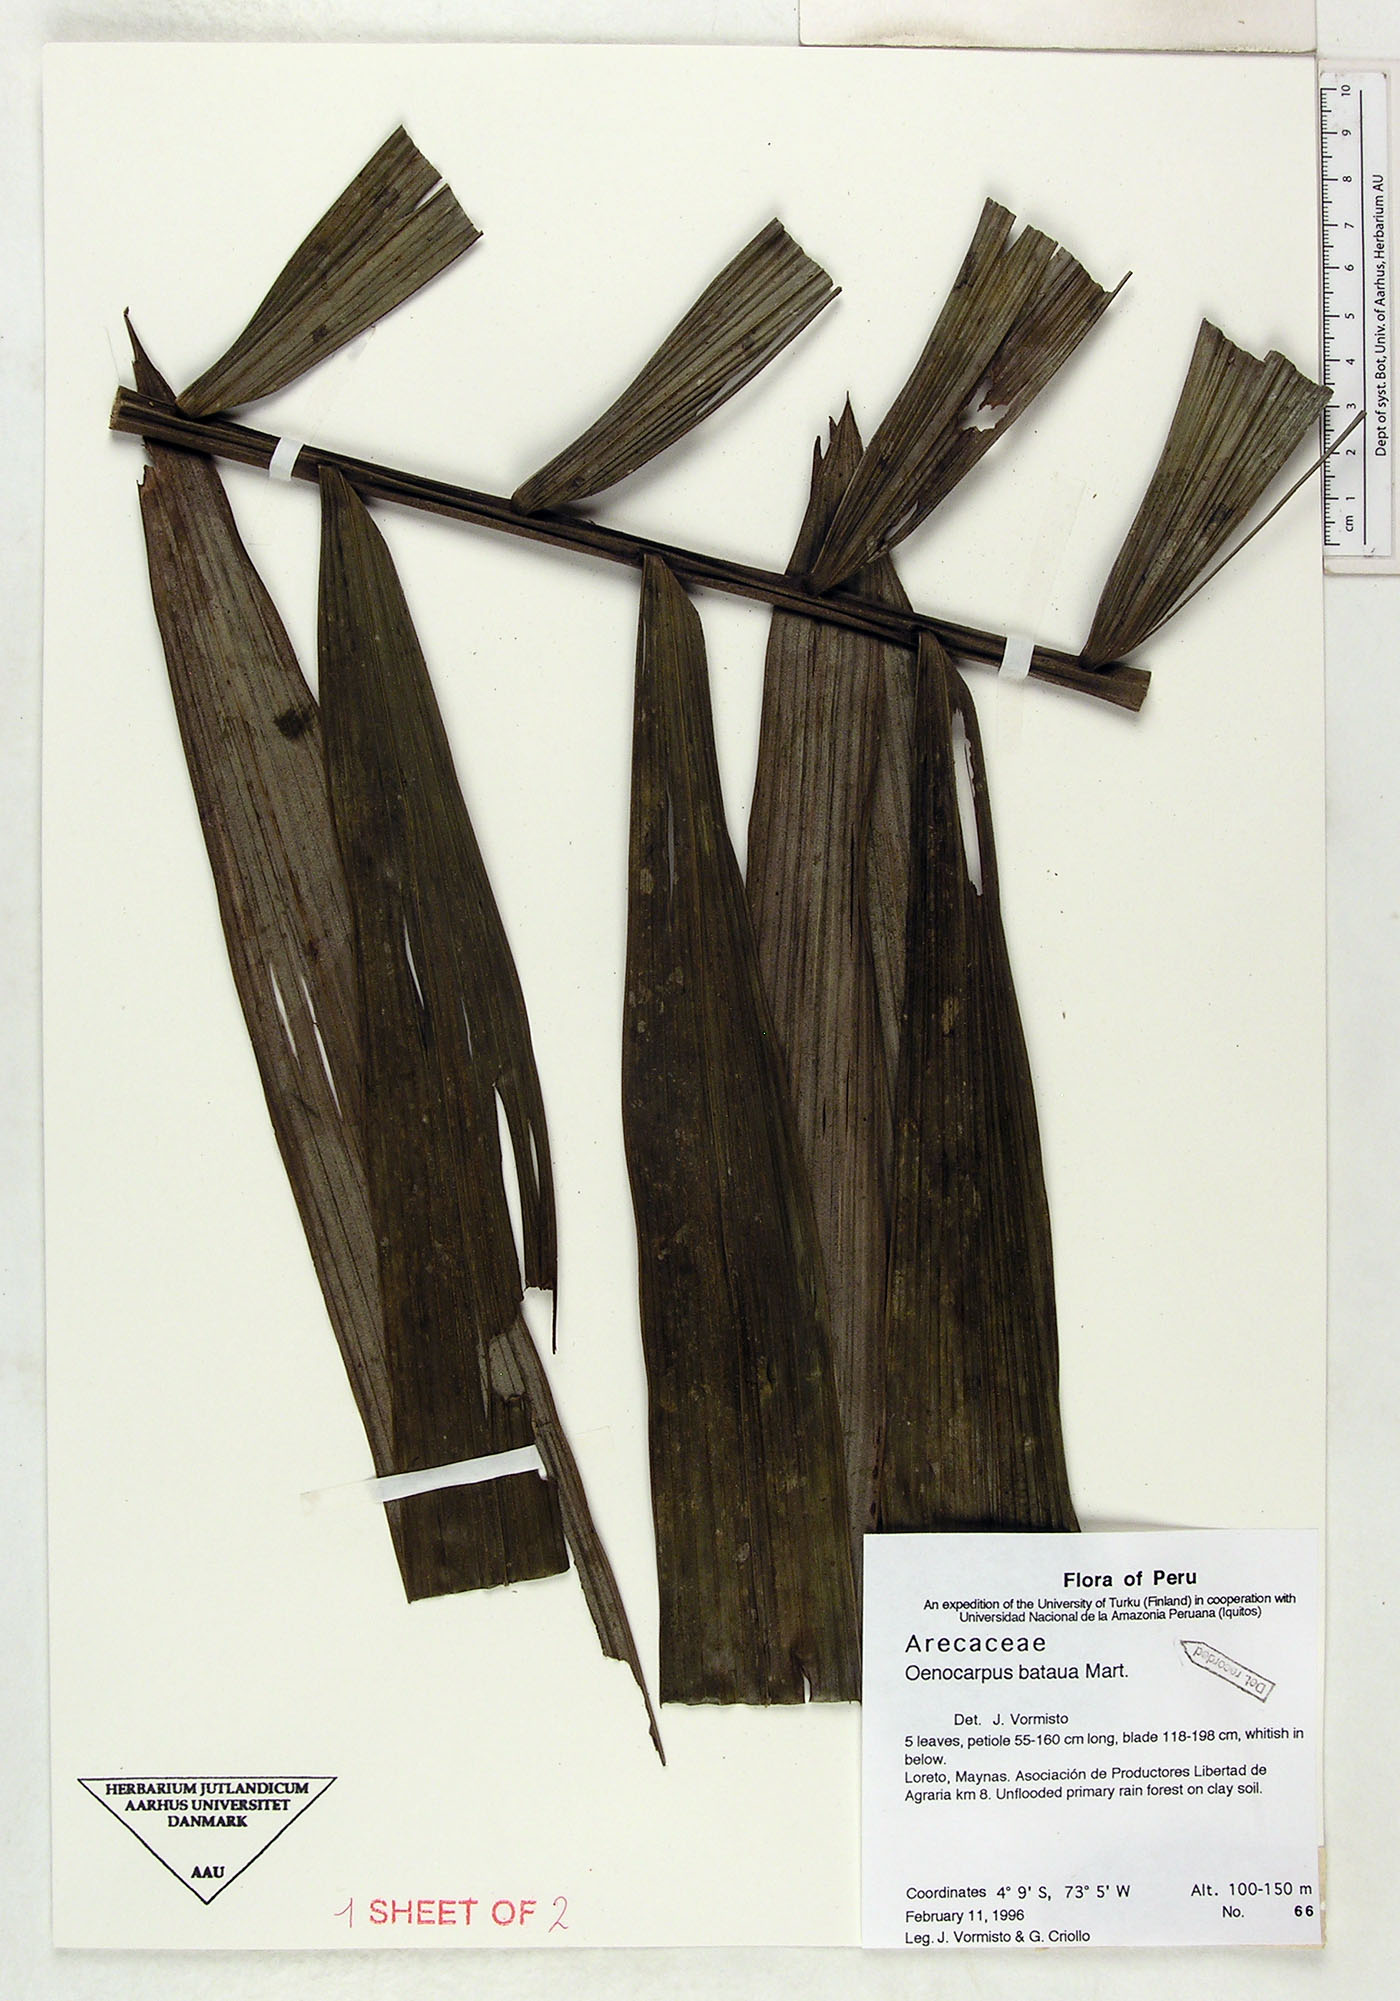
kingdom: Plantae
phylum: Tracheophyta
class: Liliopsida
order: Arecales
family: Arecaceae
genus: Oenocarpus
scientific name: Oenocarpus bataua
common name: Bataua palm
